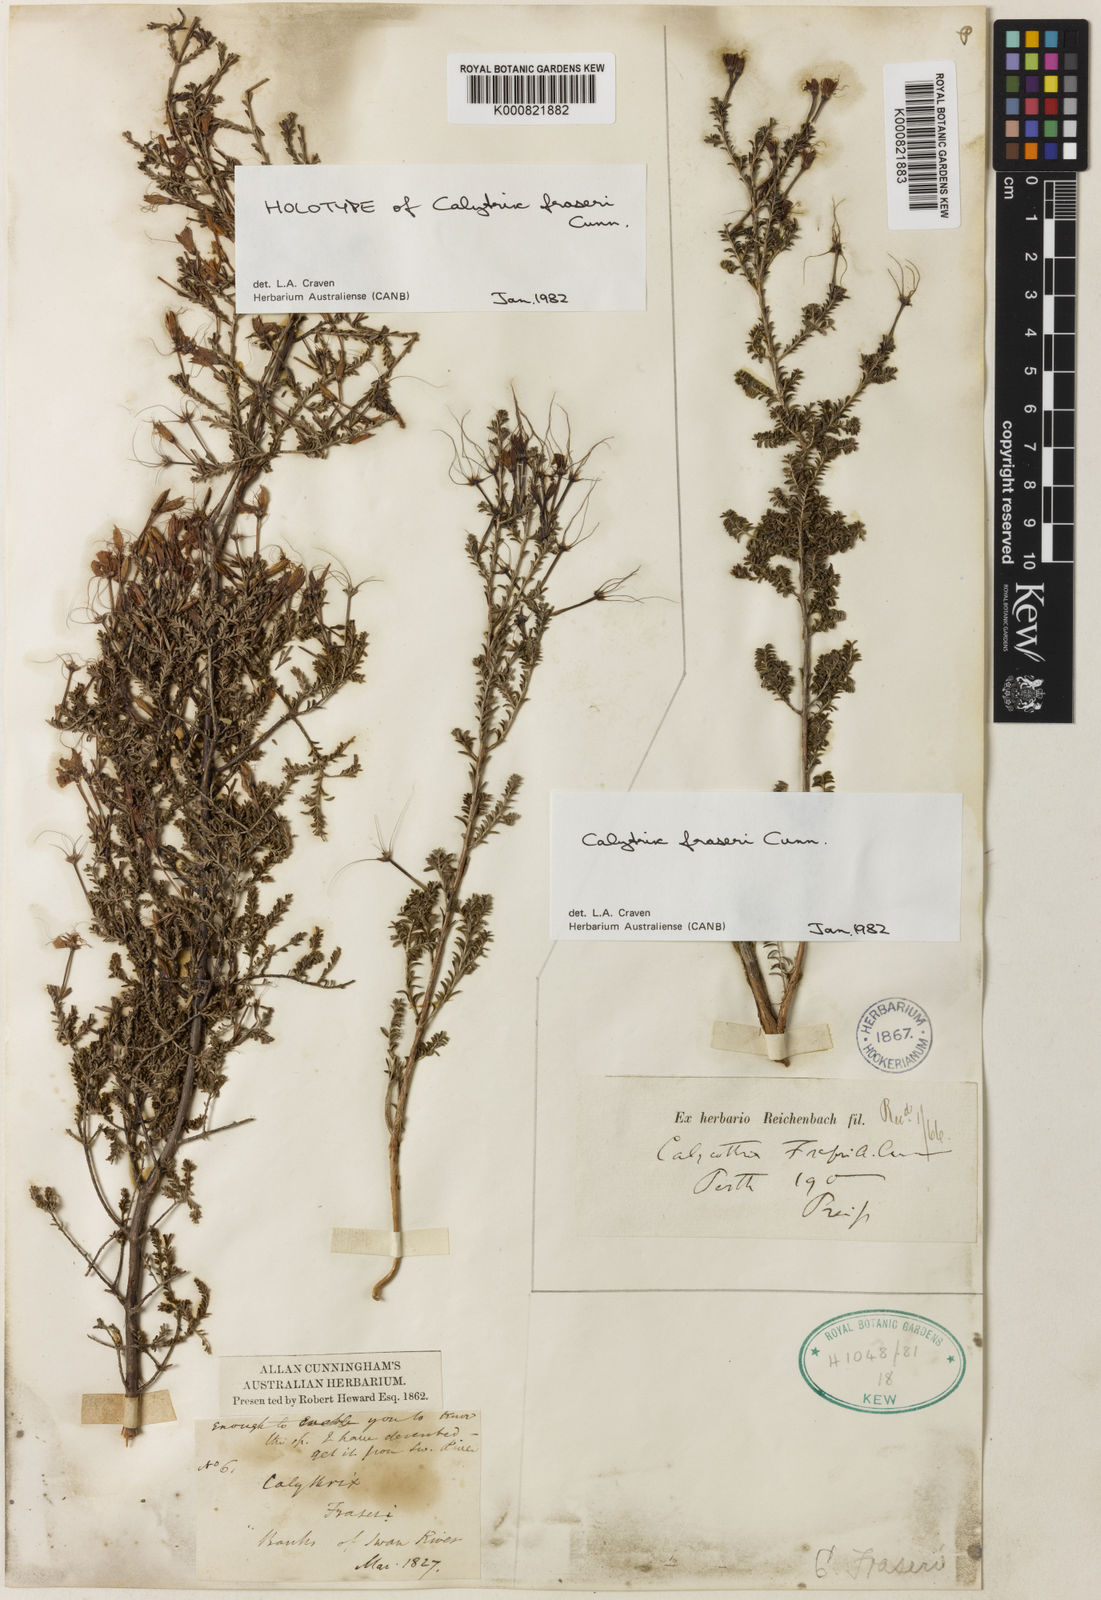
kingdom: Plantae
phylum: Tracheophyta
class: Magnoliopsida
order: Myrtales
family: Myrtaceae
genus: Calytrix
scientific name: Calytrix fraseri
